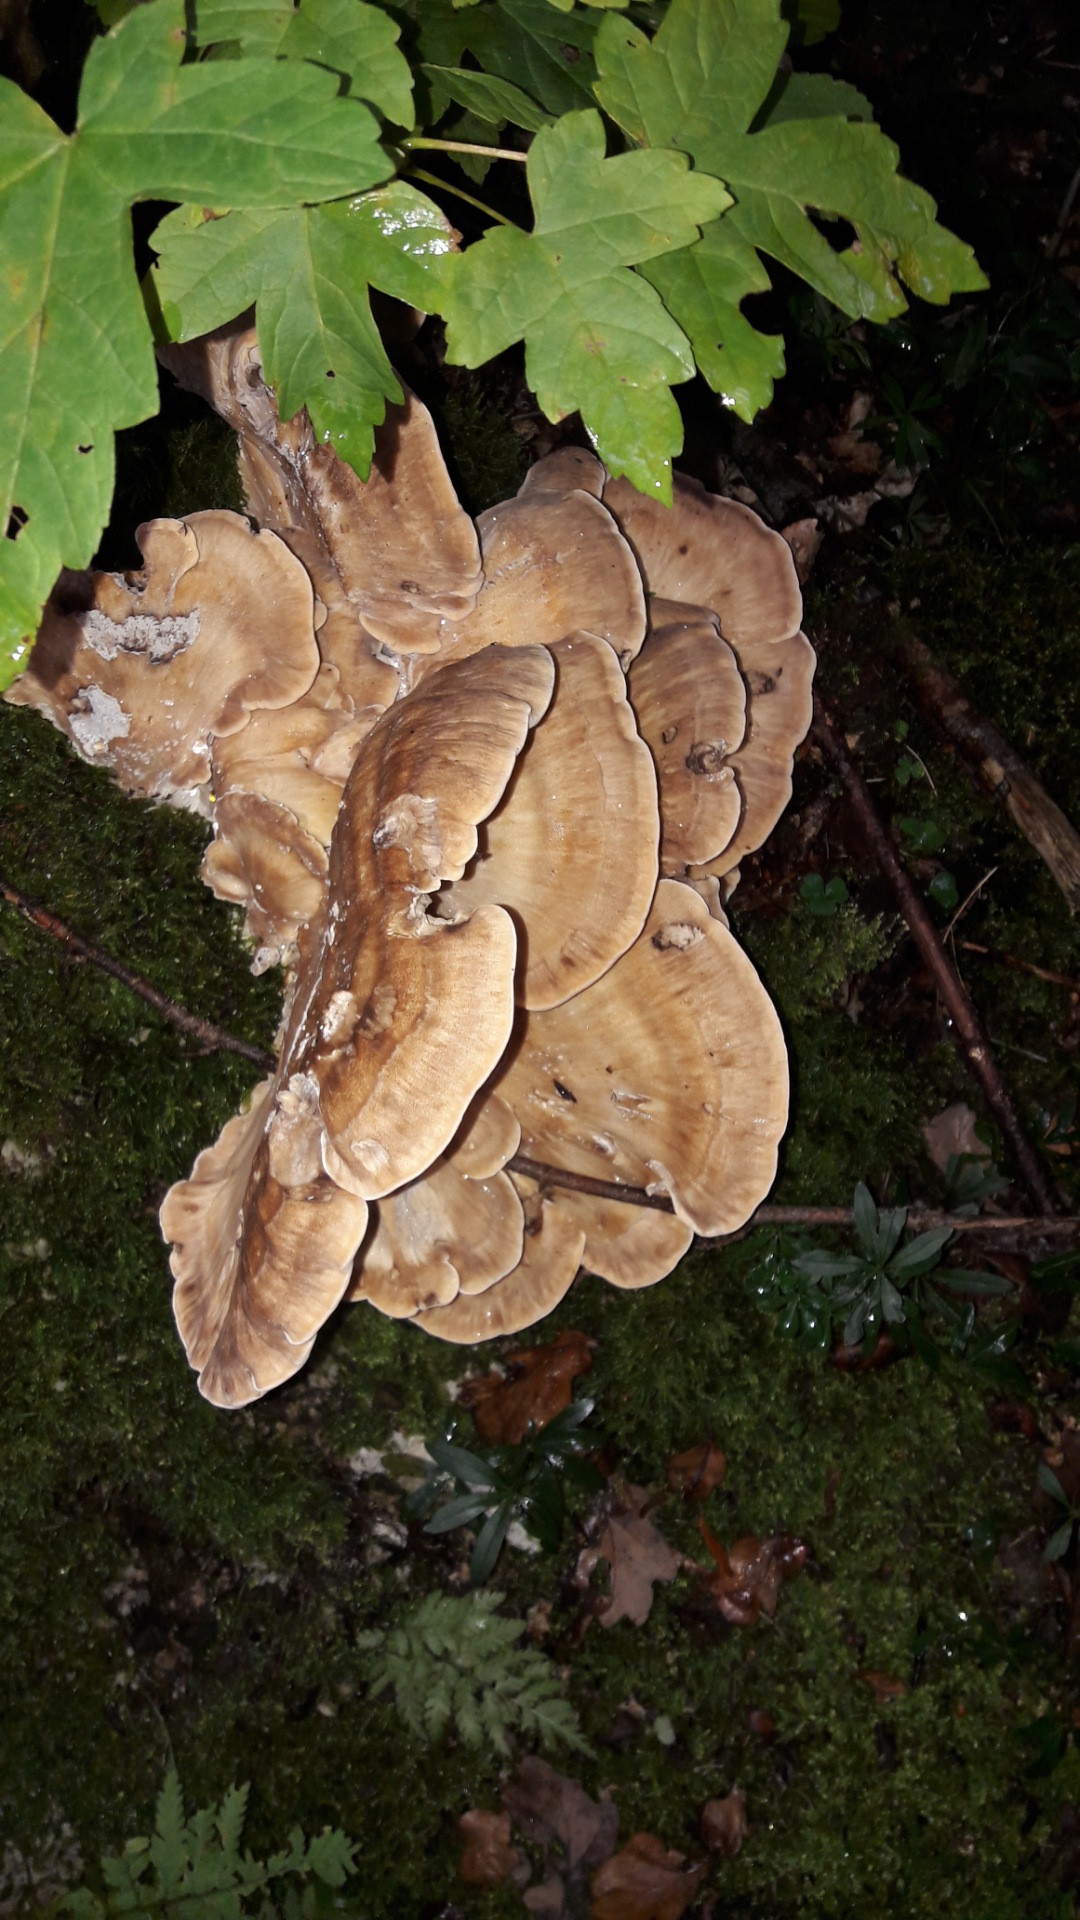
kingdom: Fungi
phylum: Basidiomycota
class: Agaricomycetes
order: Polyporales
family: Meripilaceae
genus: Meripilus
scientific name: Meripilus giganteus
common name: kæmpeporesvamp
